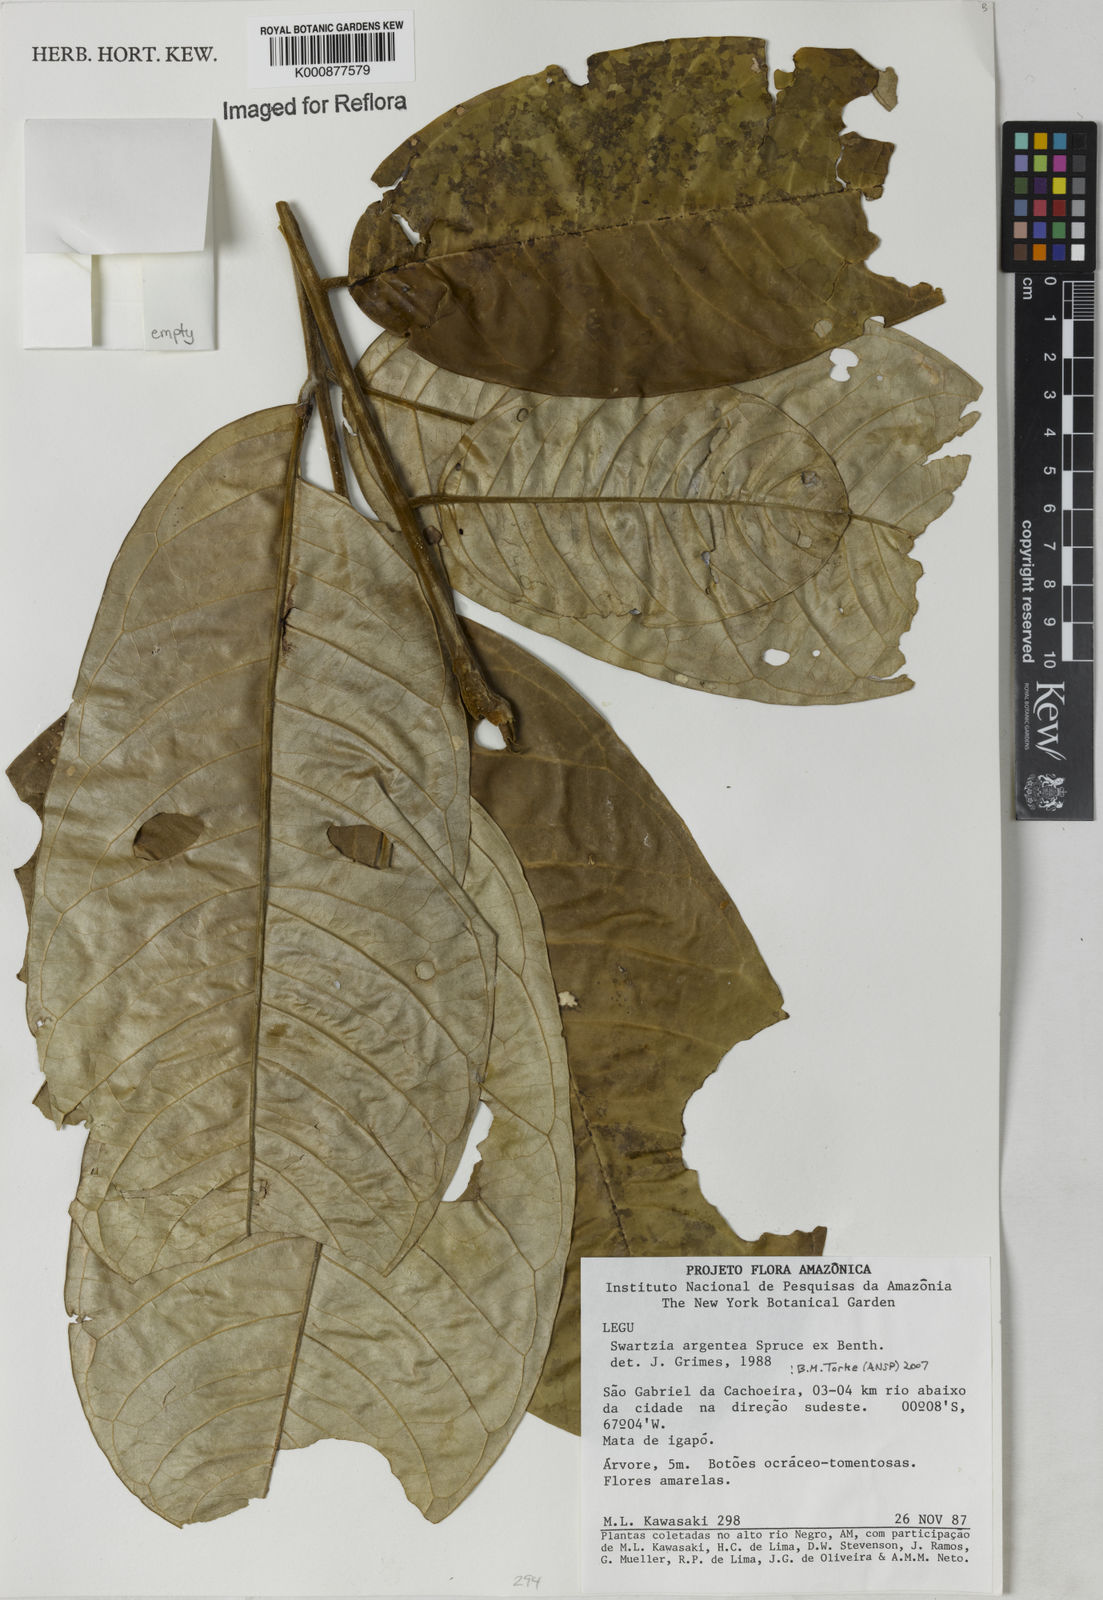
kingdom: Plantae
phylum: Tracheophyta
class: Magnoliopsida
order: Fabales
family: Fabaceae
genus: Swartzia
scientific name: Swartzia argentea
